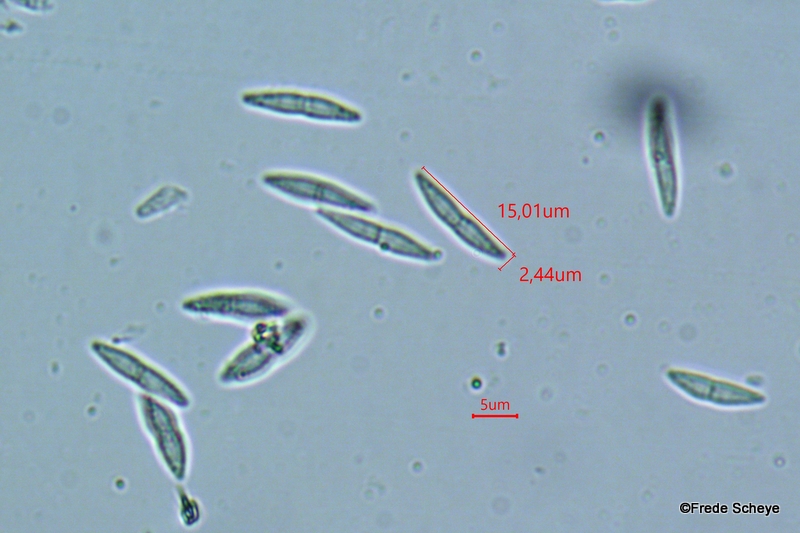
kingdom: Fungi
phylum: Ascomycota
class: Sordariomycetes
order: Diaporthales
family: Gnomoniaceae
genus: Sirococcus
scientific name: Sirococcus conigenus
